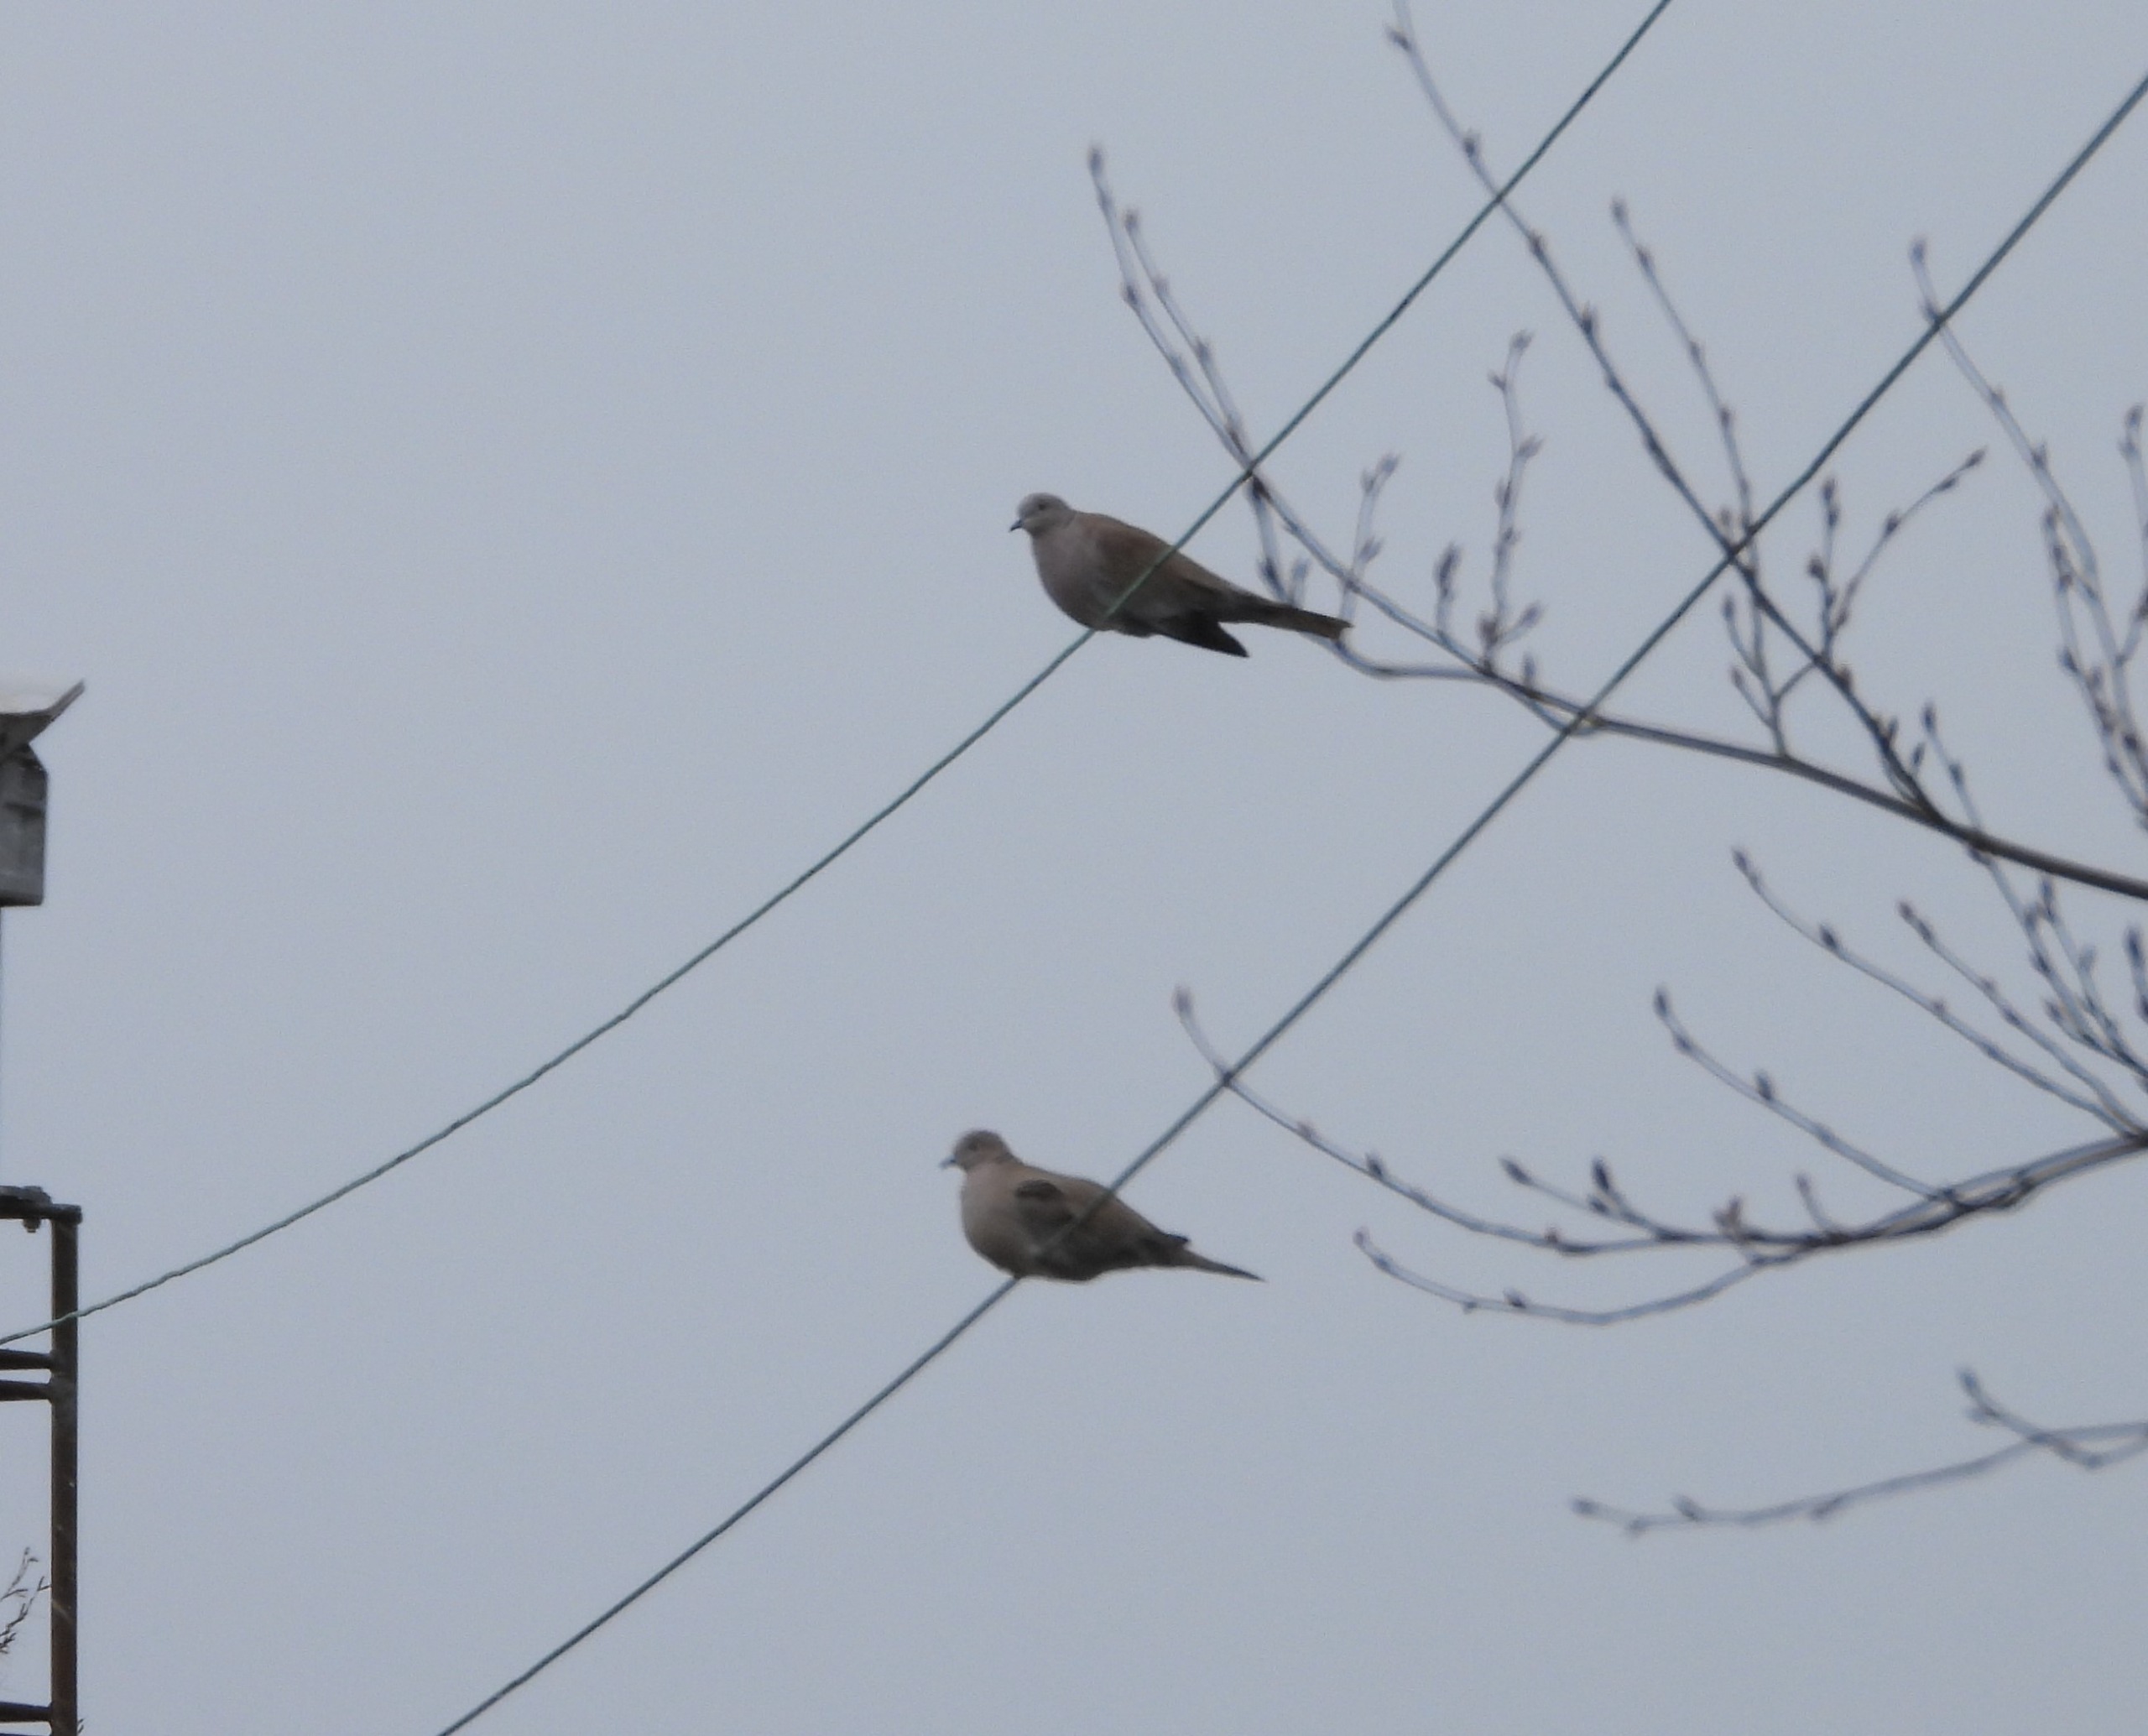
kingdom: Animalia
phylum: Chordata
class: Aves
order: Columbiformes
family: Columbidae
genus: Streptopelia
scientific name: Streptopelia decaocto
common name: Tyrkerdue
